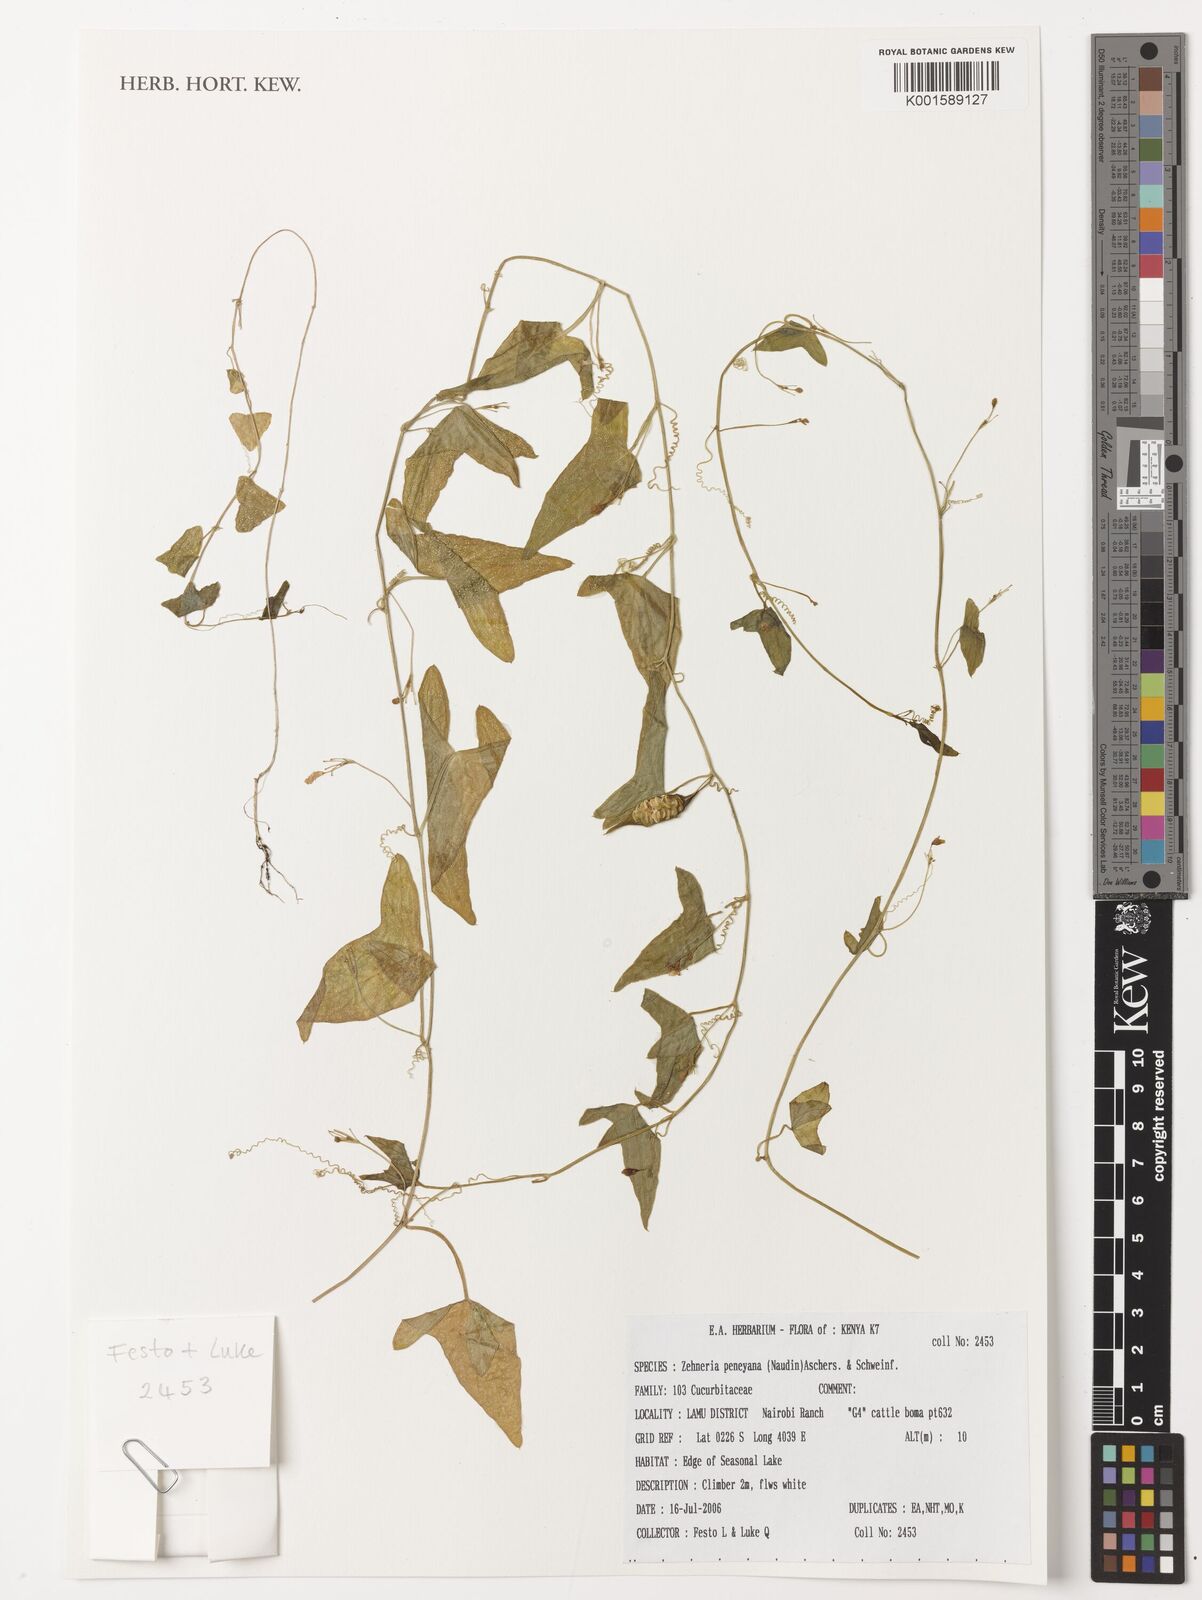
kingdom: Plantae
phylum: Tracheophyta
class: Magnoliopsida
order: Cucurbitales
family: Cucurbitaceae
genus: Zehneria
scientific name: Zehneria peneyana
